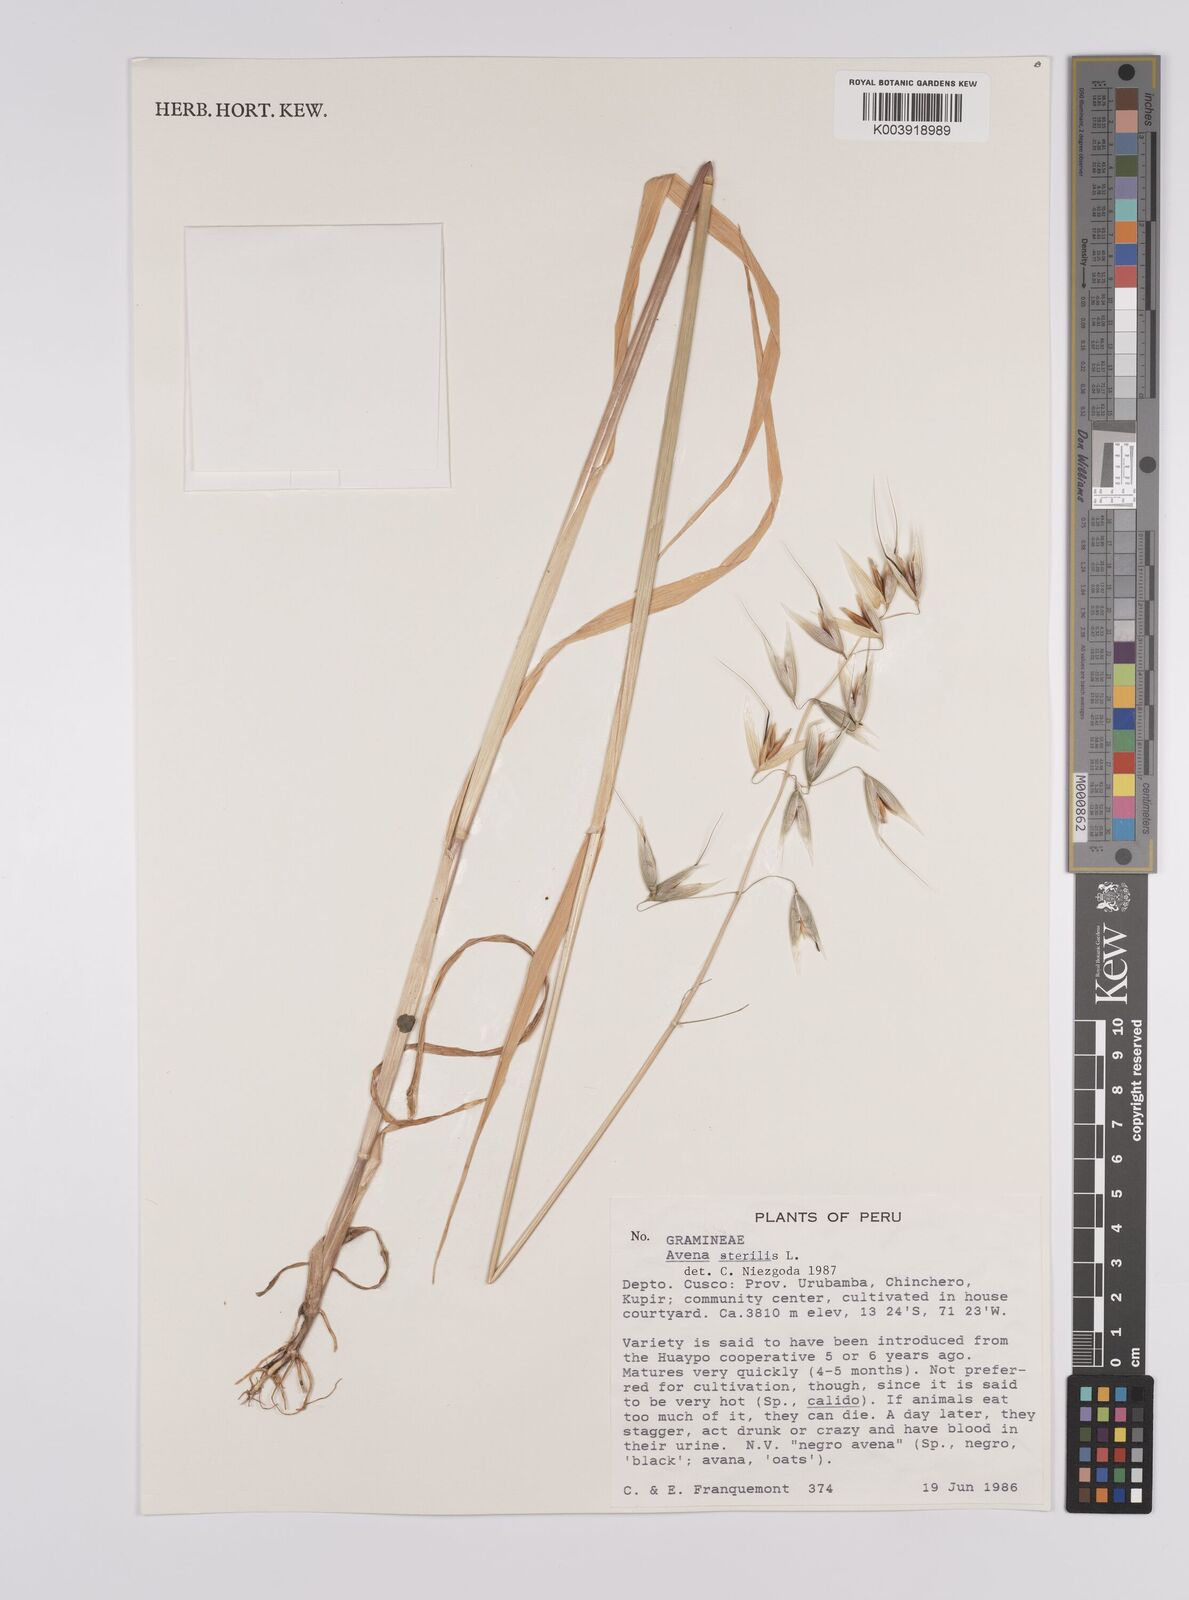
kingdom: Plantae
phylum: Tracheophyta
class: Liliopsida
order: Poales
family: Poaceae
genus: Avena
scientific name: Avena fatua
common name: Wild oat
